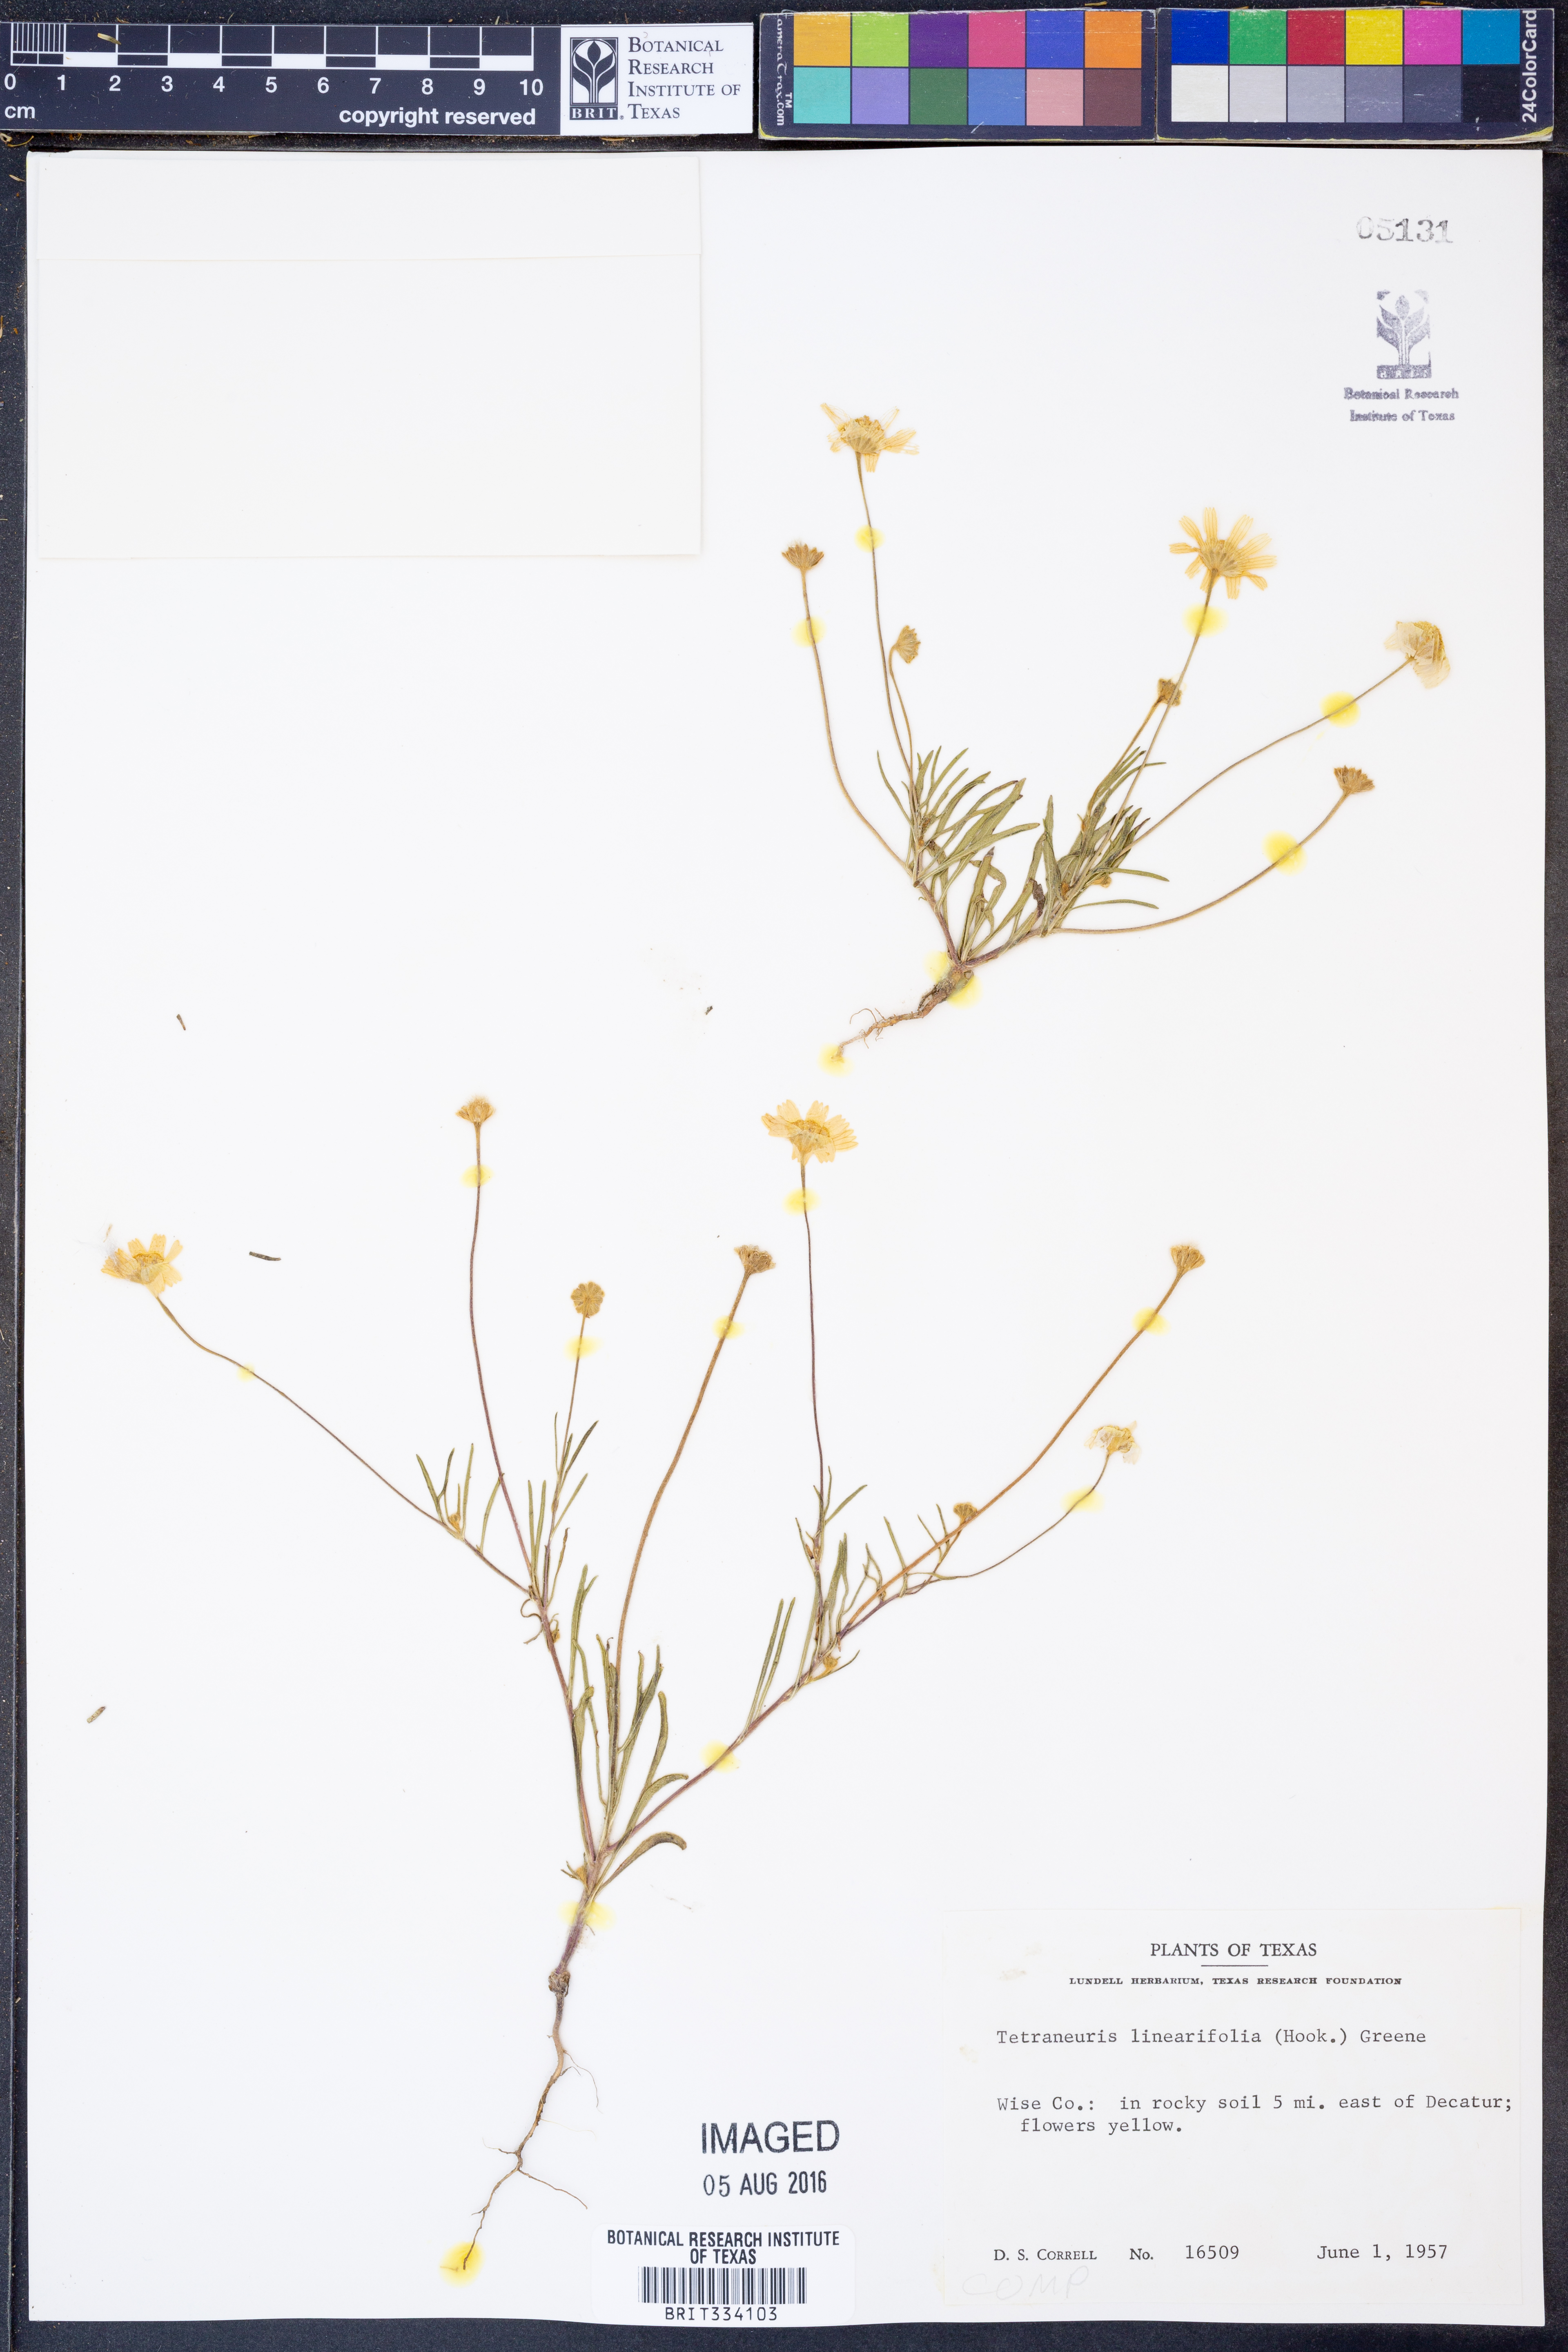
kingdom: Plantae
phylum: Tracheophyta
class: Magnoliopsida
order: Asterales
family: Asteraceae
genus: Tetraneuris
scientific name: Tetraneuris linearifolia
